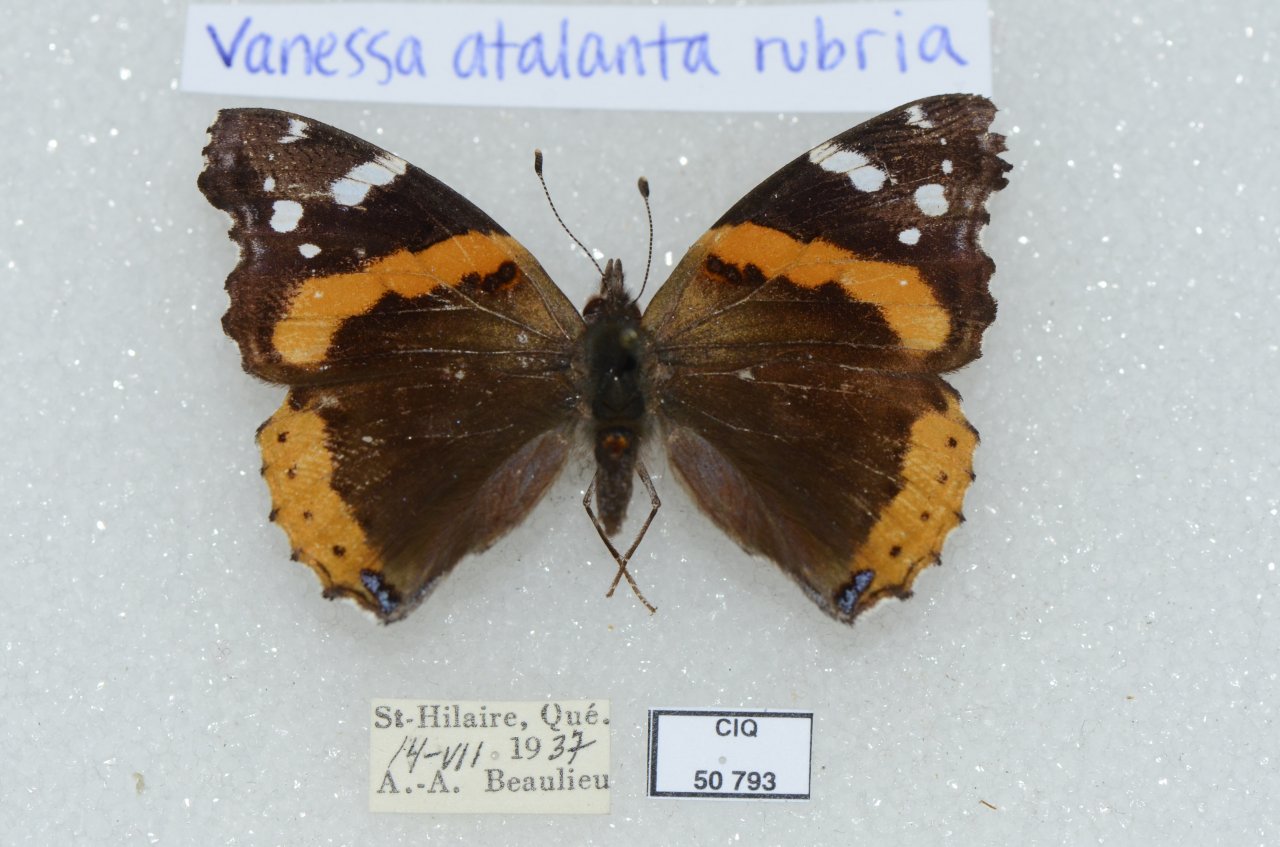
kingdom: Animalia
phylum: Arthropoda
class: Insecta
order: Lepidoptera
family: Nymphalidae
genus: Vanessa
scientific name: Vanessa atalanta
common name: Red Admiral
